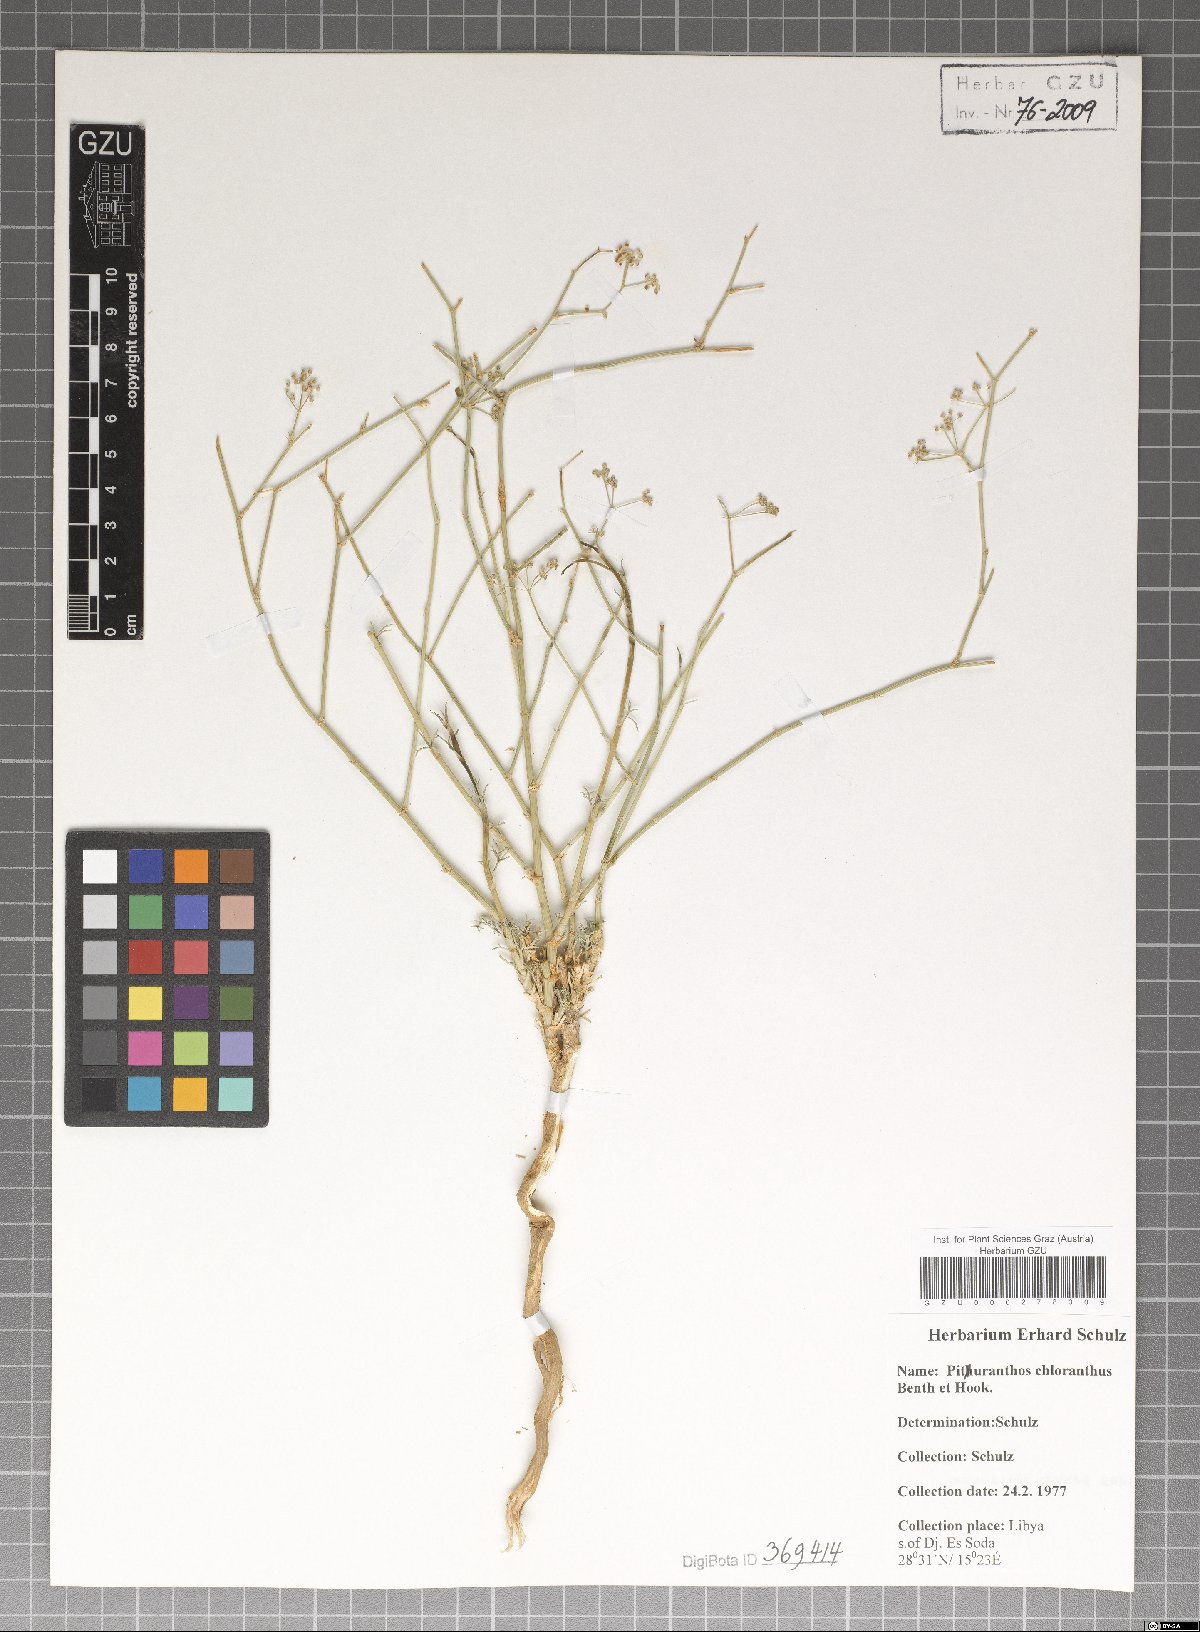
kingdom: Plantae
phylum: Tracheophyta
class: Magnoliopsida
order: Apiales
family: Apiaceae
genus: Deverra
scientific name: Deverra denudata
